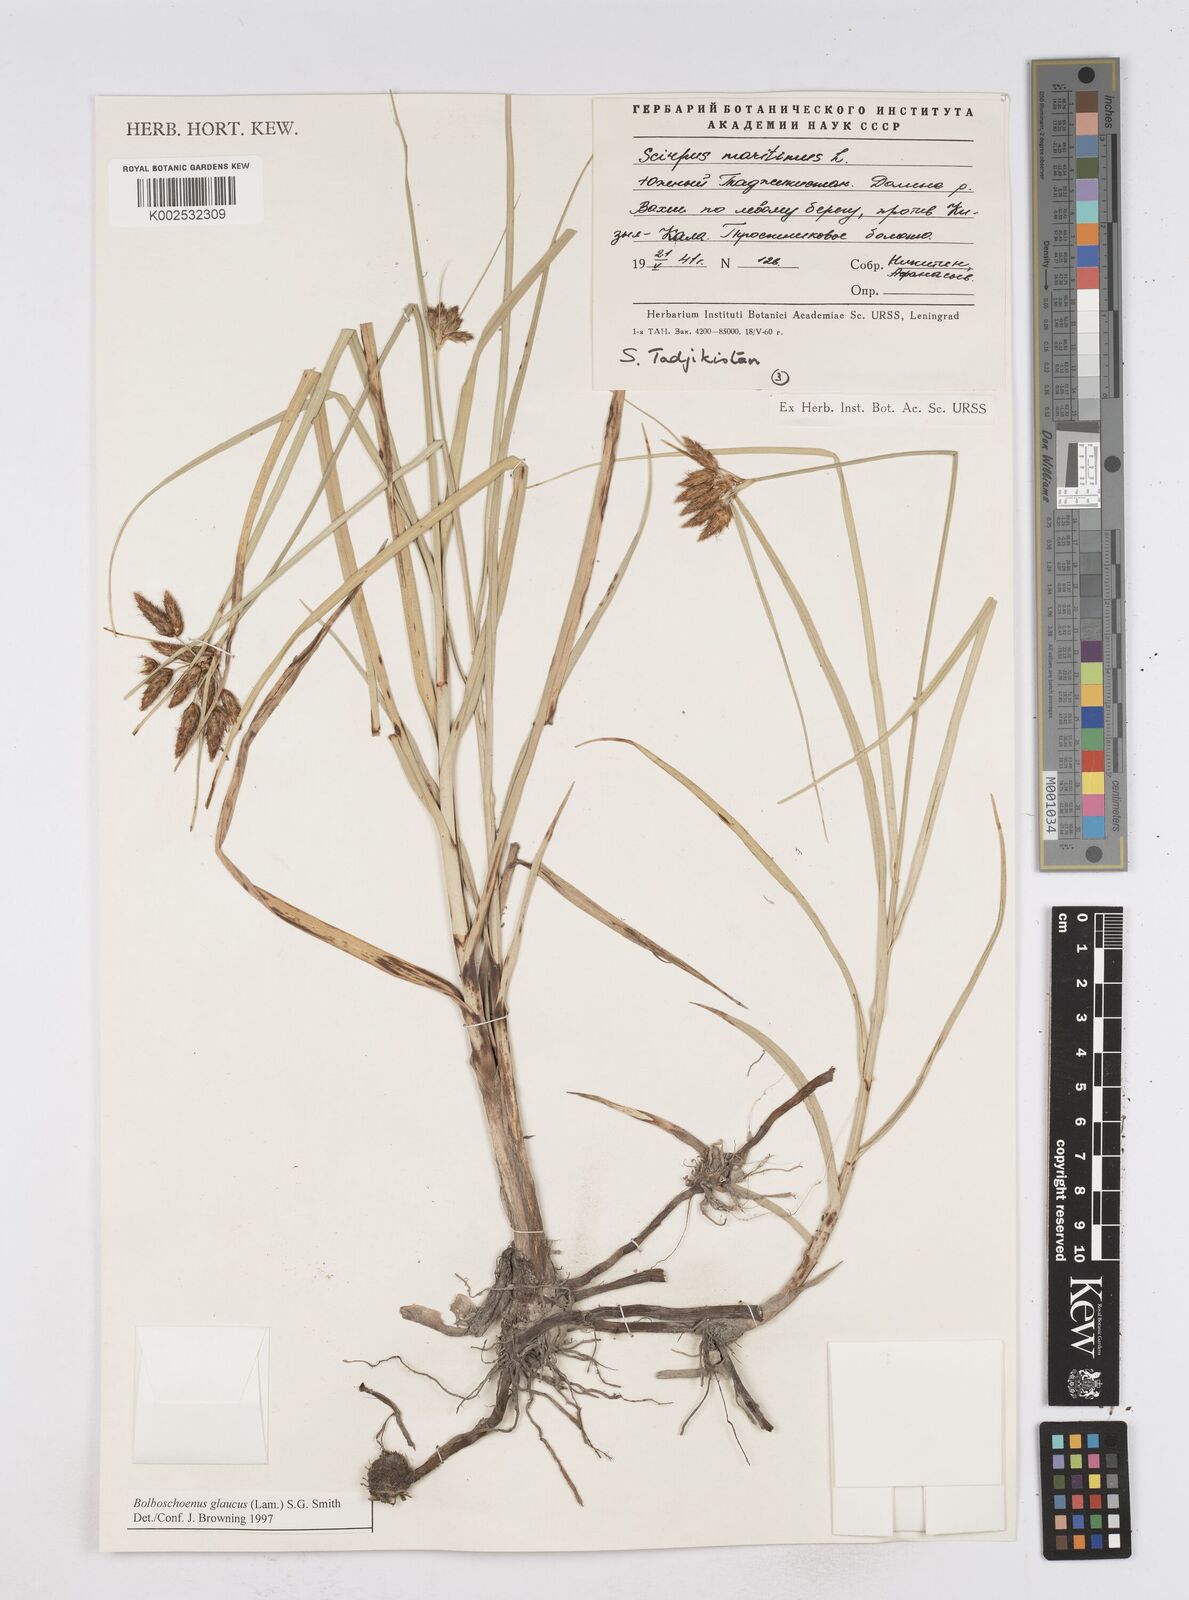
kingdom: Plantae
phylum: Tracheophyta
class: Liliopsida
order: Poales
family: Cyperaceae
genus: Bolboschoenus
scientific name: Bolboschoenus maritimus
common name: Sea club-rush
